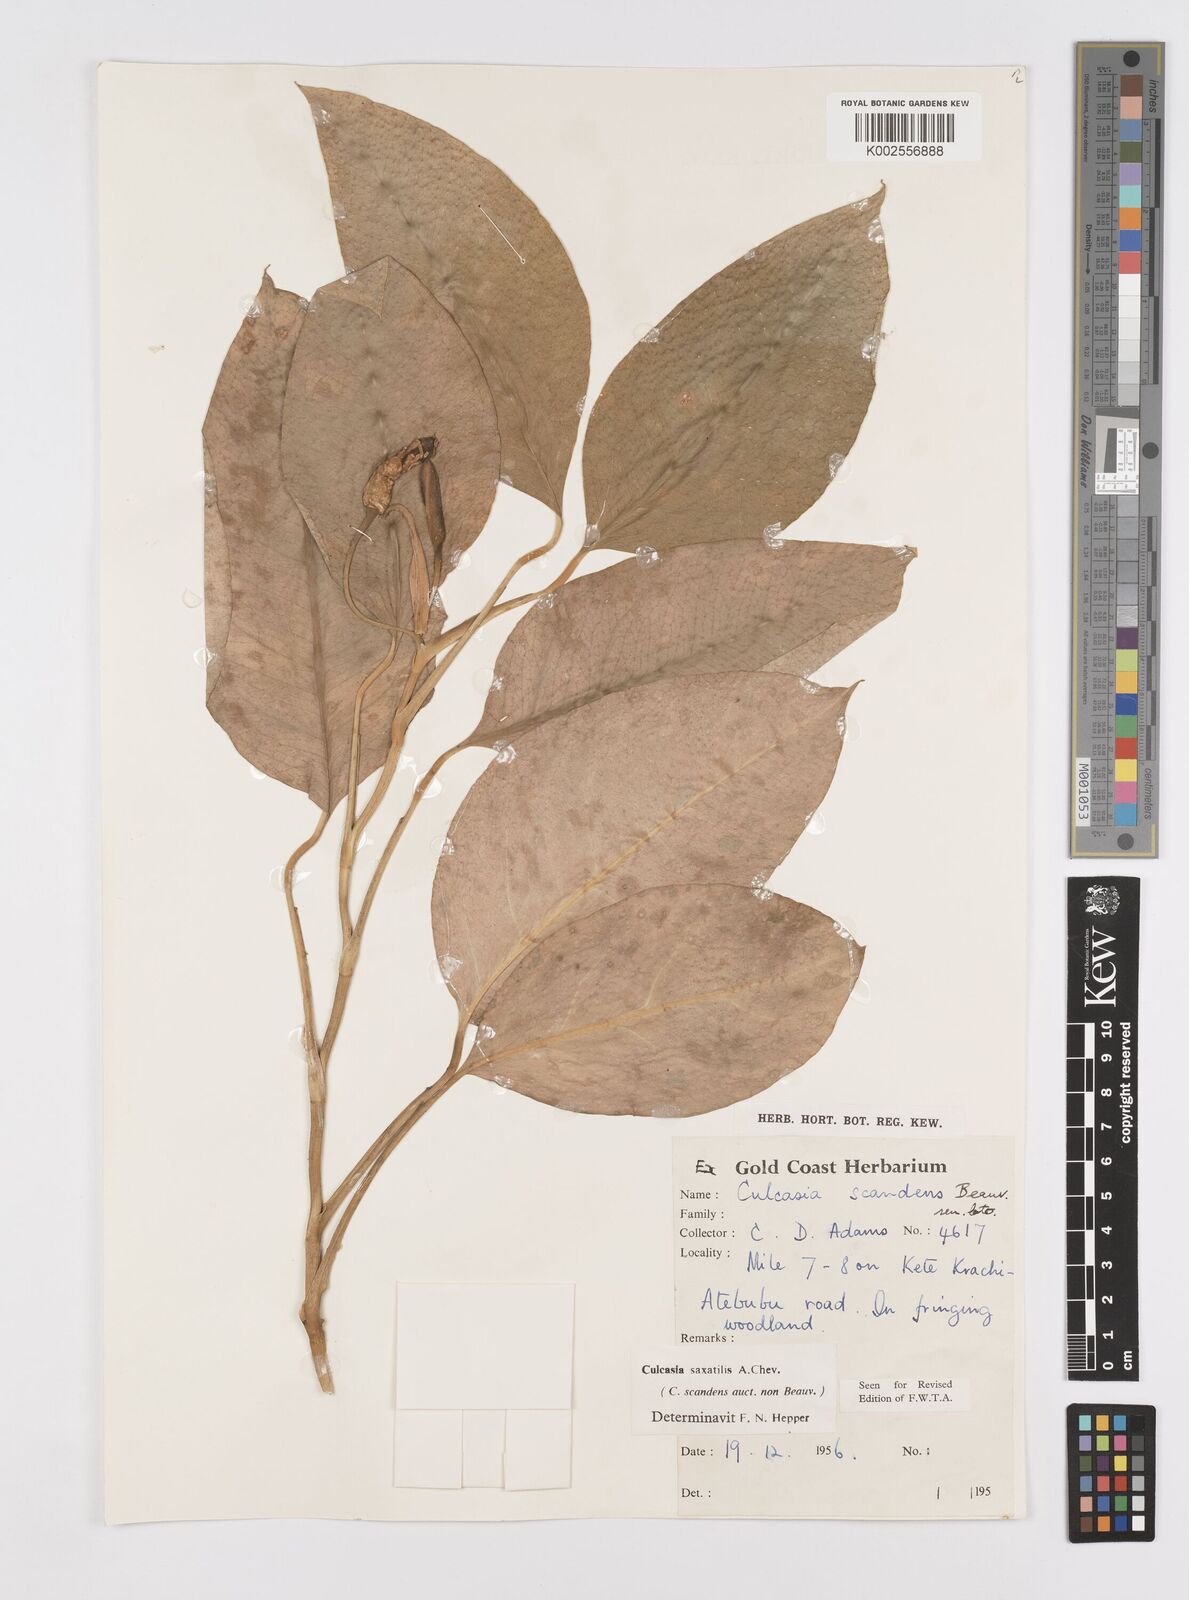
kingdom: Plantae
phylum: Tracheophyta
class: Liliopsida
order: Alismatales
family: Araceae
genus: Culcasia
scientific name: Culcasia scandens
